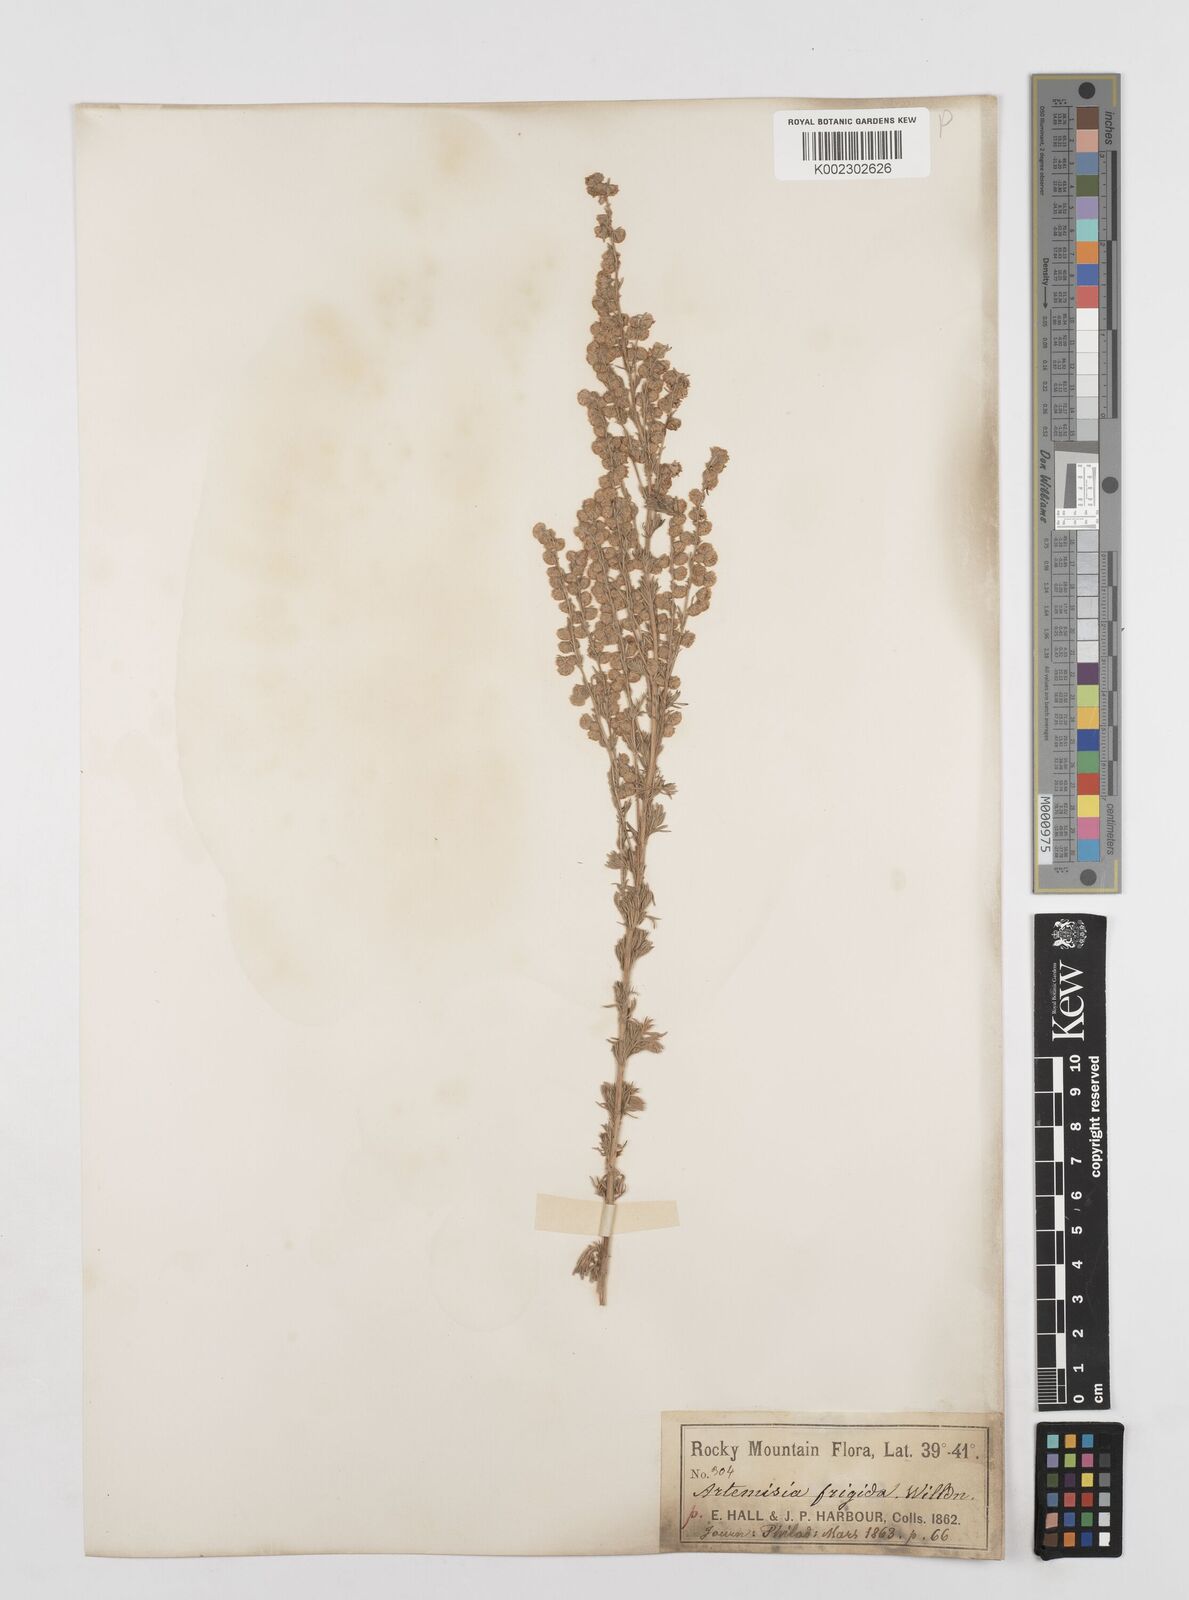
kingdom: Plantae
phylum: Tracheophyta
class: Magnoliopsida
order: Asterales
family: Asteraceae
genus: Artemisia
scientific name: Artemisia frigida
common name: Prairie sagewort
